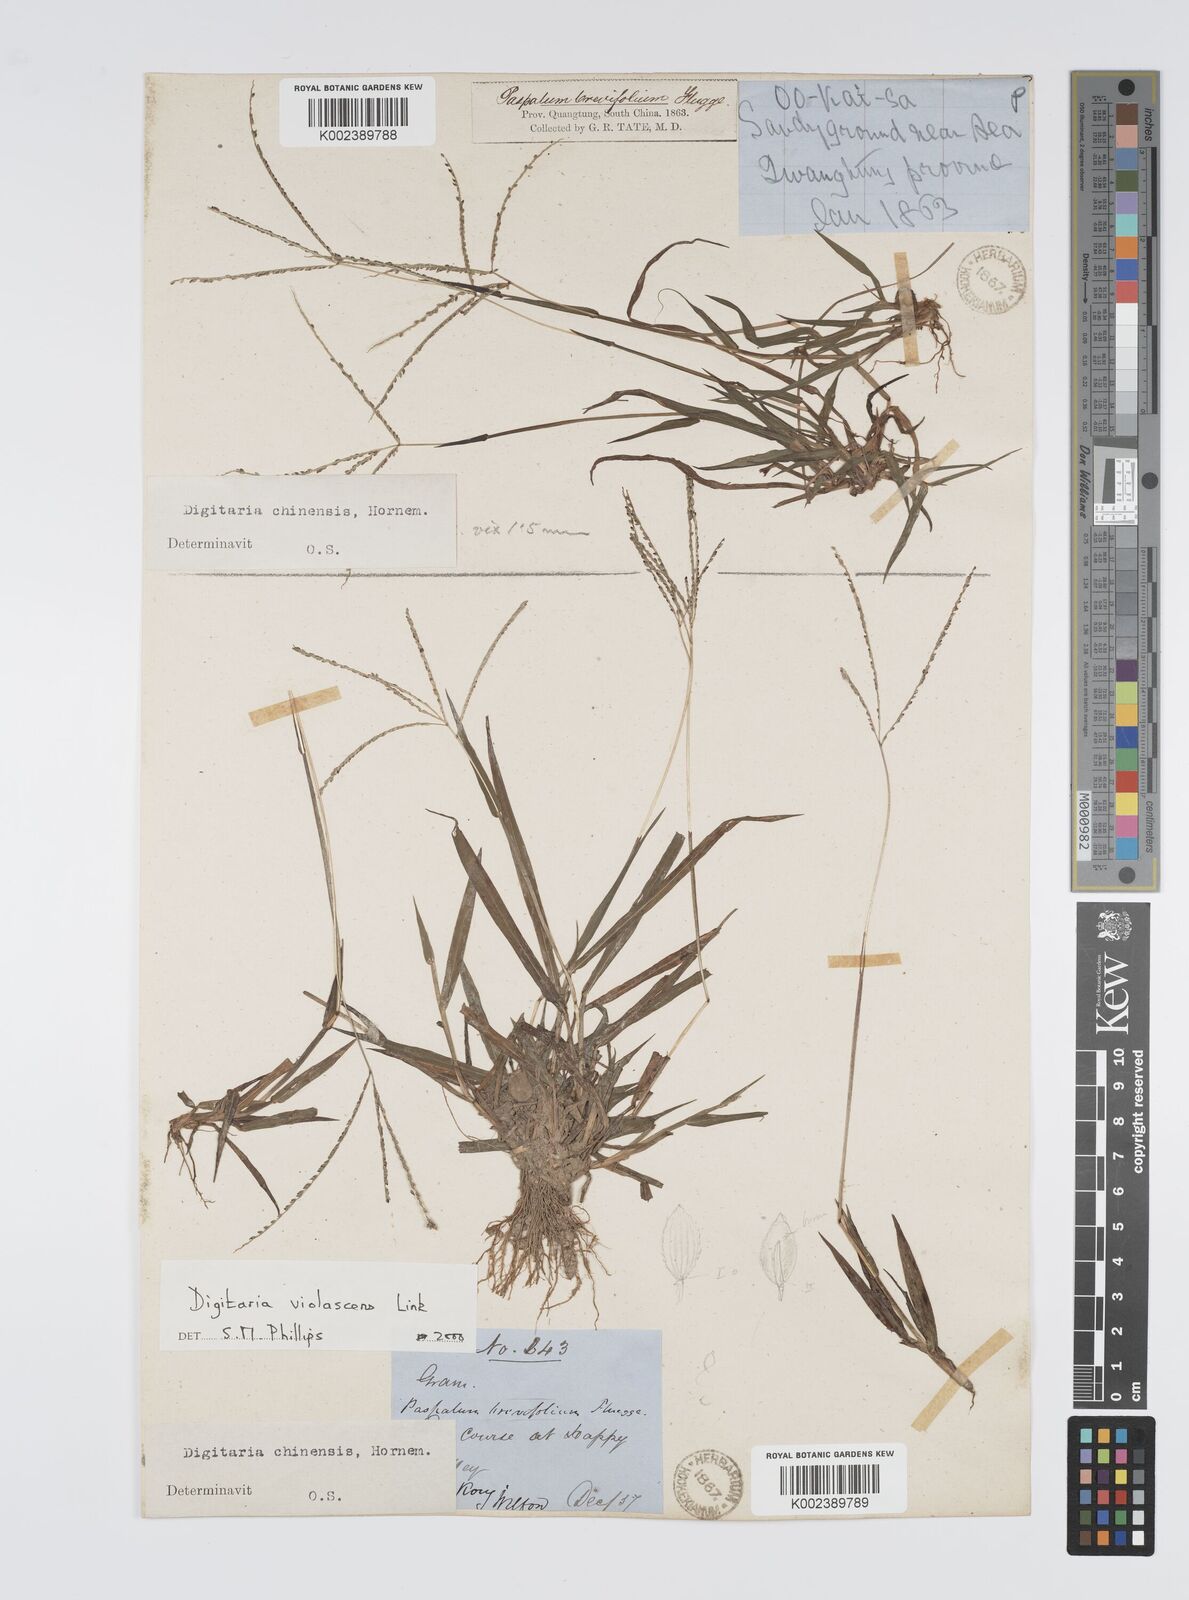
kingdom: Plantae
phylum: Tracheophyta
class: Liliopsida
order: Poales
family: Poaceae
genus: Digitaria
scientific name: Digitaria violascens
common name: Violet crabgrass
